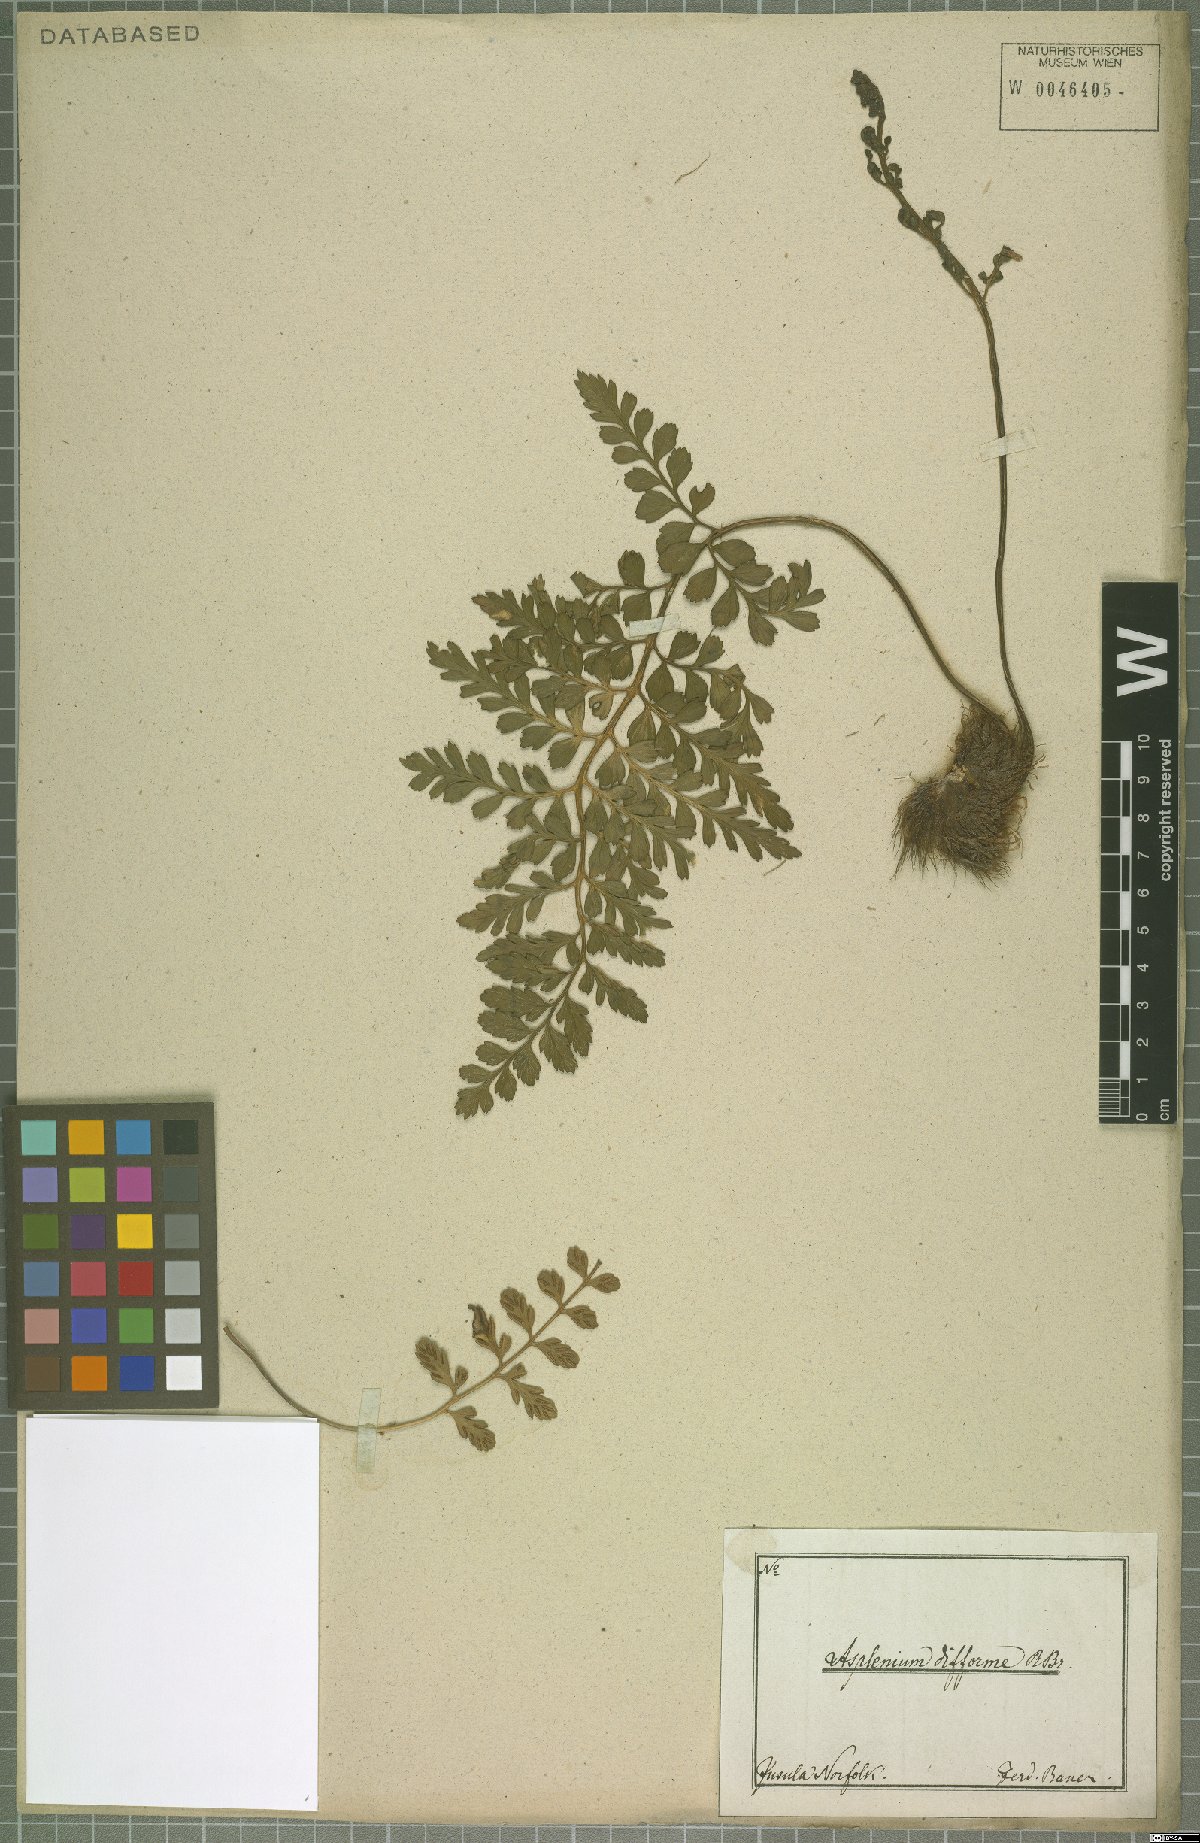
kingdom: Plantae
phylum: Tracheophyta
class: Polypodiopsida
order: Polypodiales
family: Aspleniaceae
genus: Asplenium
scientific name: Asplenium difforme
